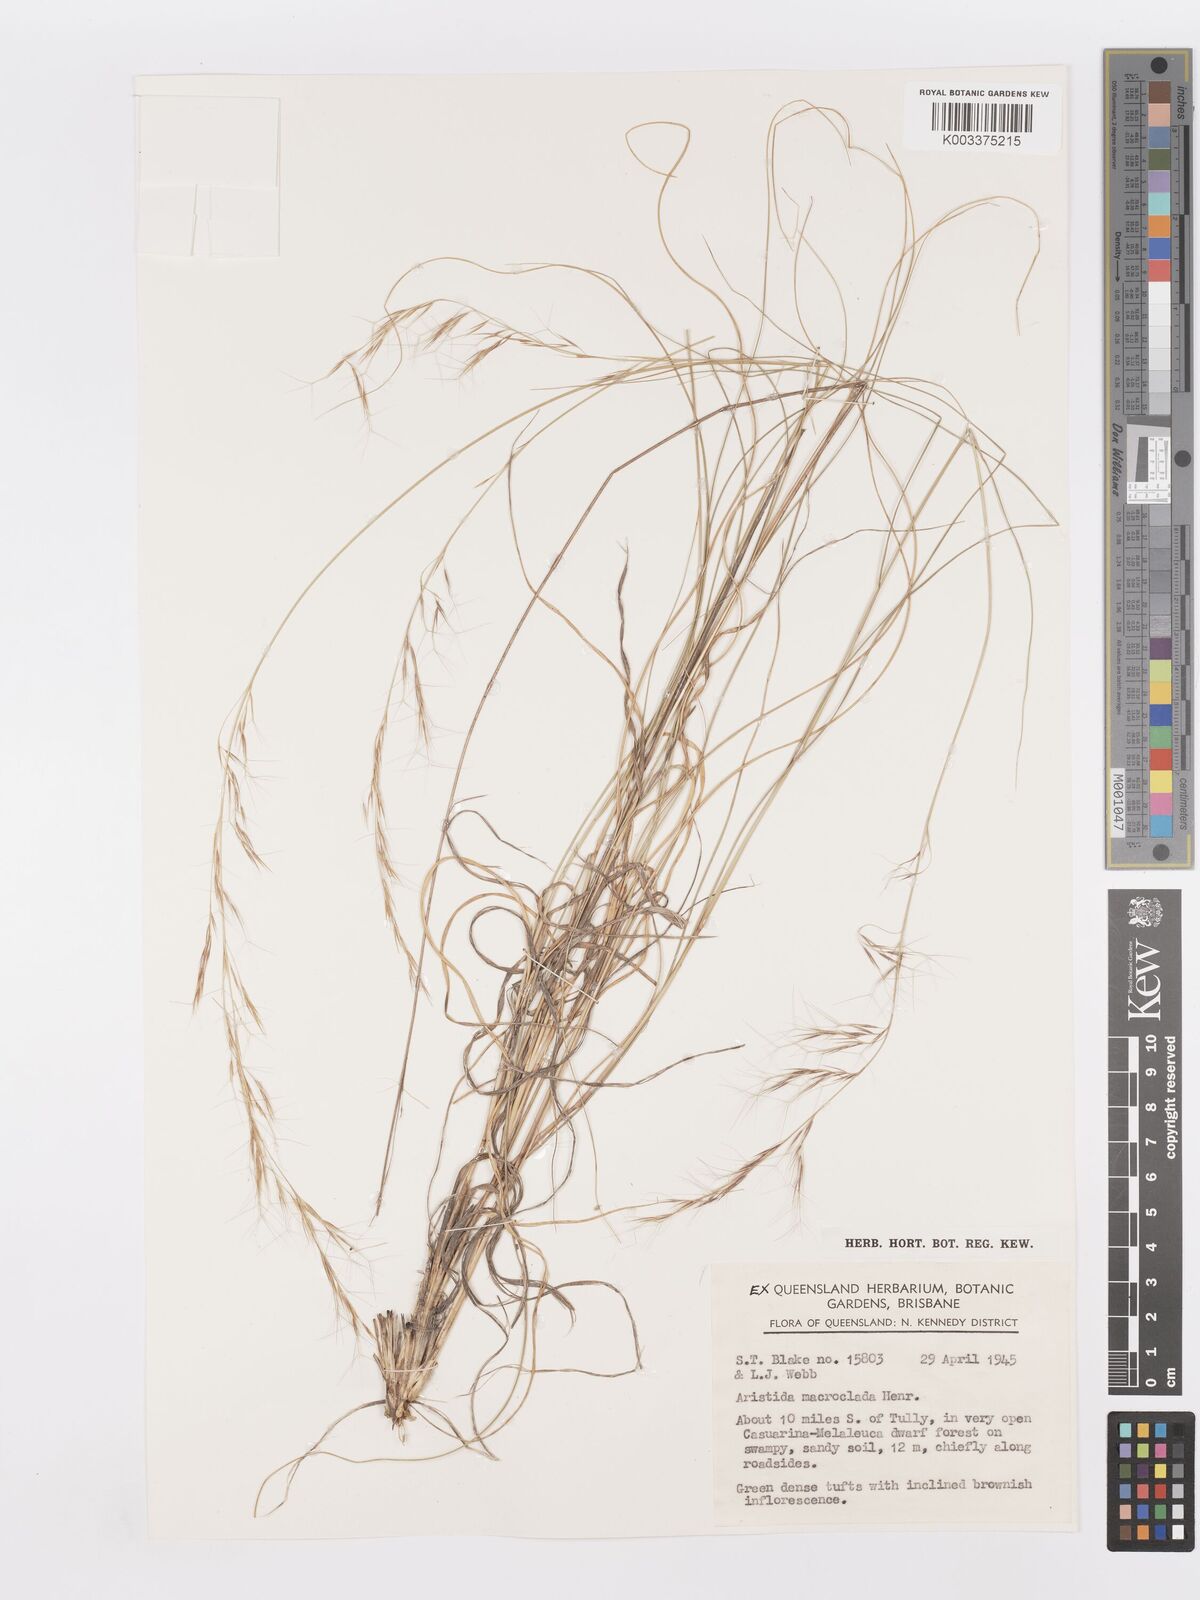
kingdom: Plantae
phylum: Tracheophyta
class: Liliopsida
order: Poales
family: Poaceae
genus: Aristida
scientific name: Aristida macroclada
